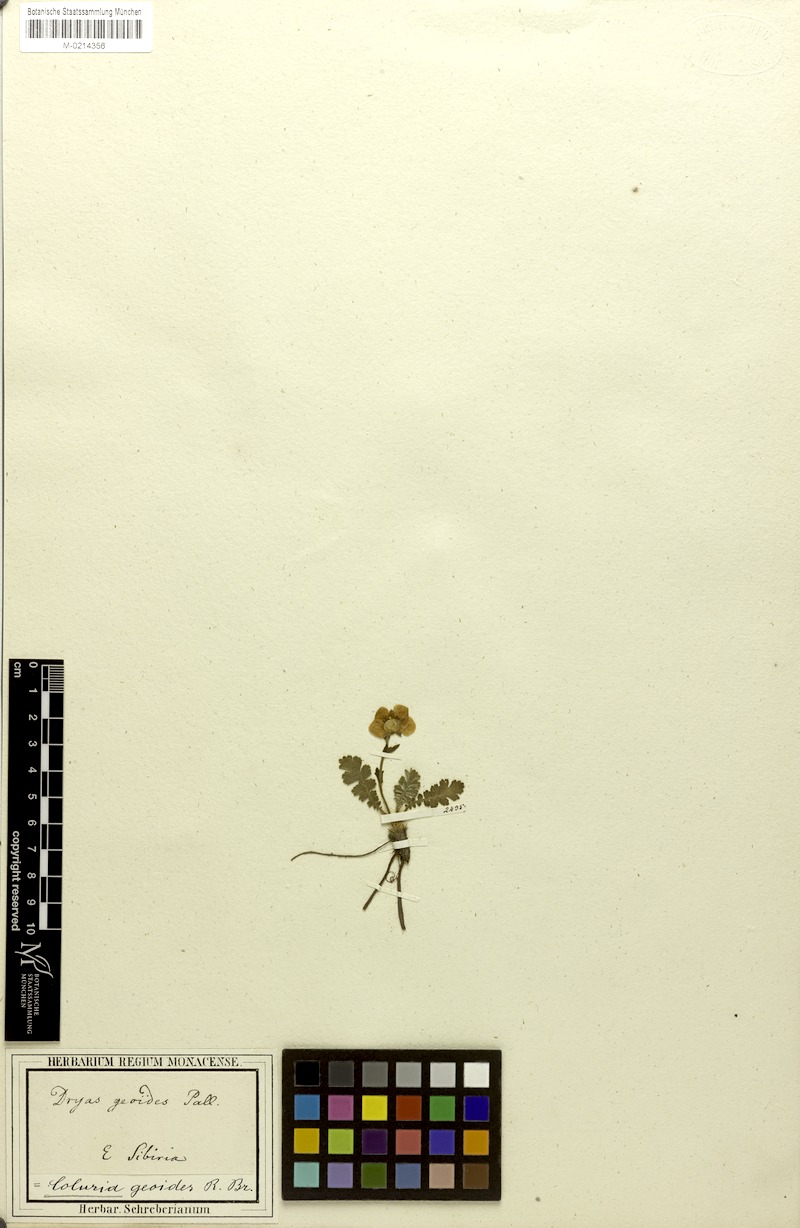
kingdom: Plantae
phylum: Tracheophyta
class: Magnoliopsida
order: Rosales
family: Rosaceae
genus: Geum
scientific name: Geum geoides
